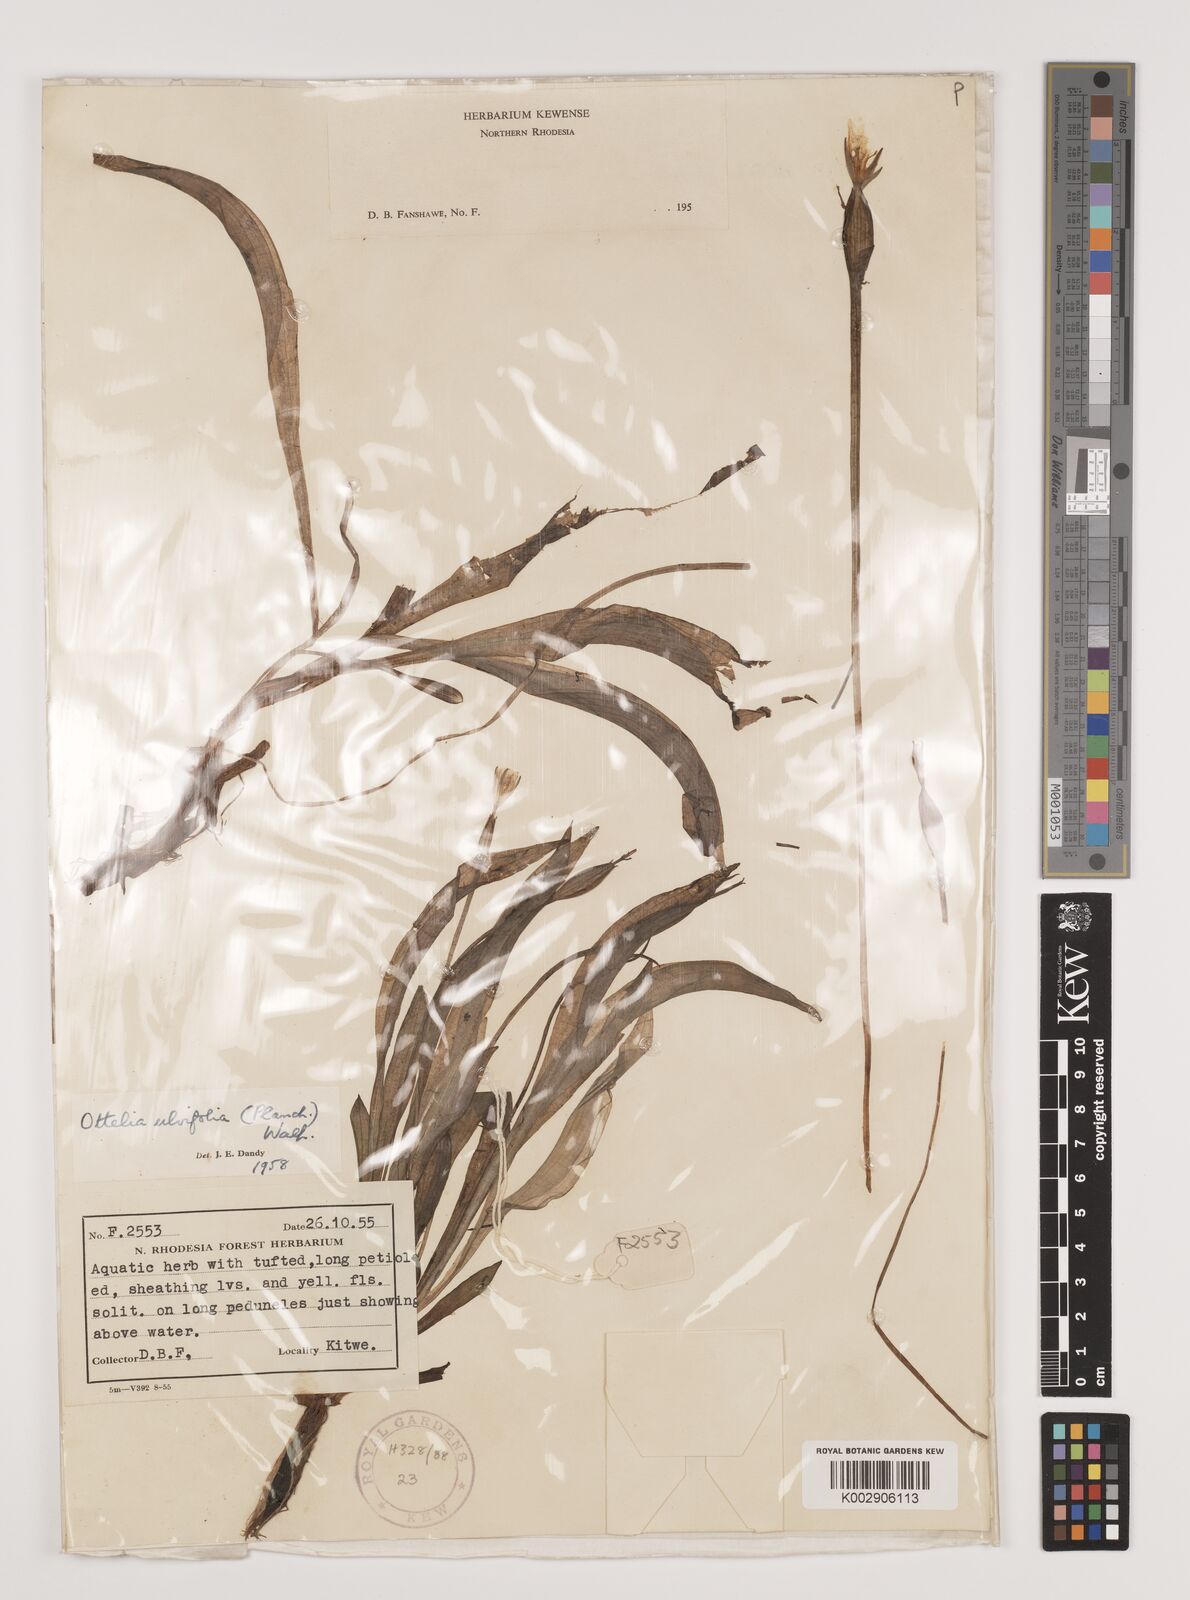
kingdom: Plantae
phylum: Tracheophyta
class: Liliopsida
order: Alismatales
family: Hydrocharitaceae
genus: Ottelia
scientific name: Ottelia ulvifolia
